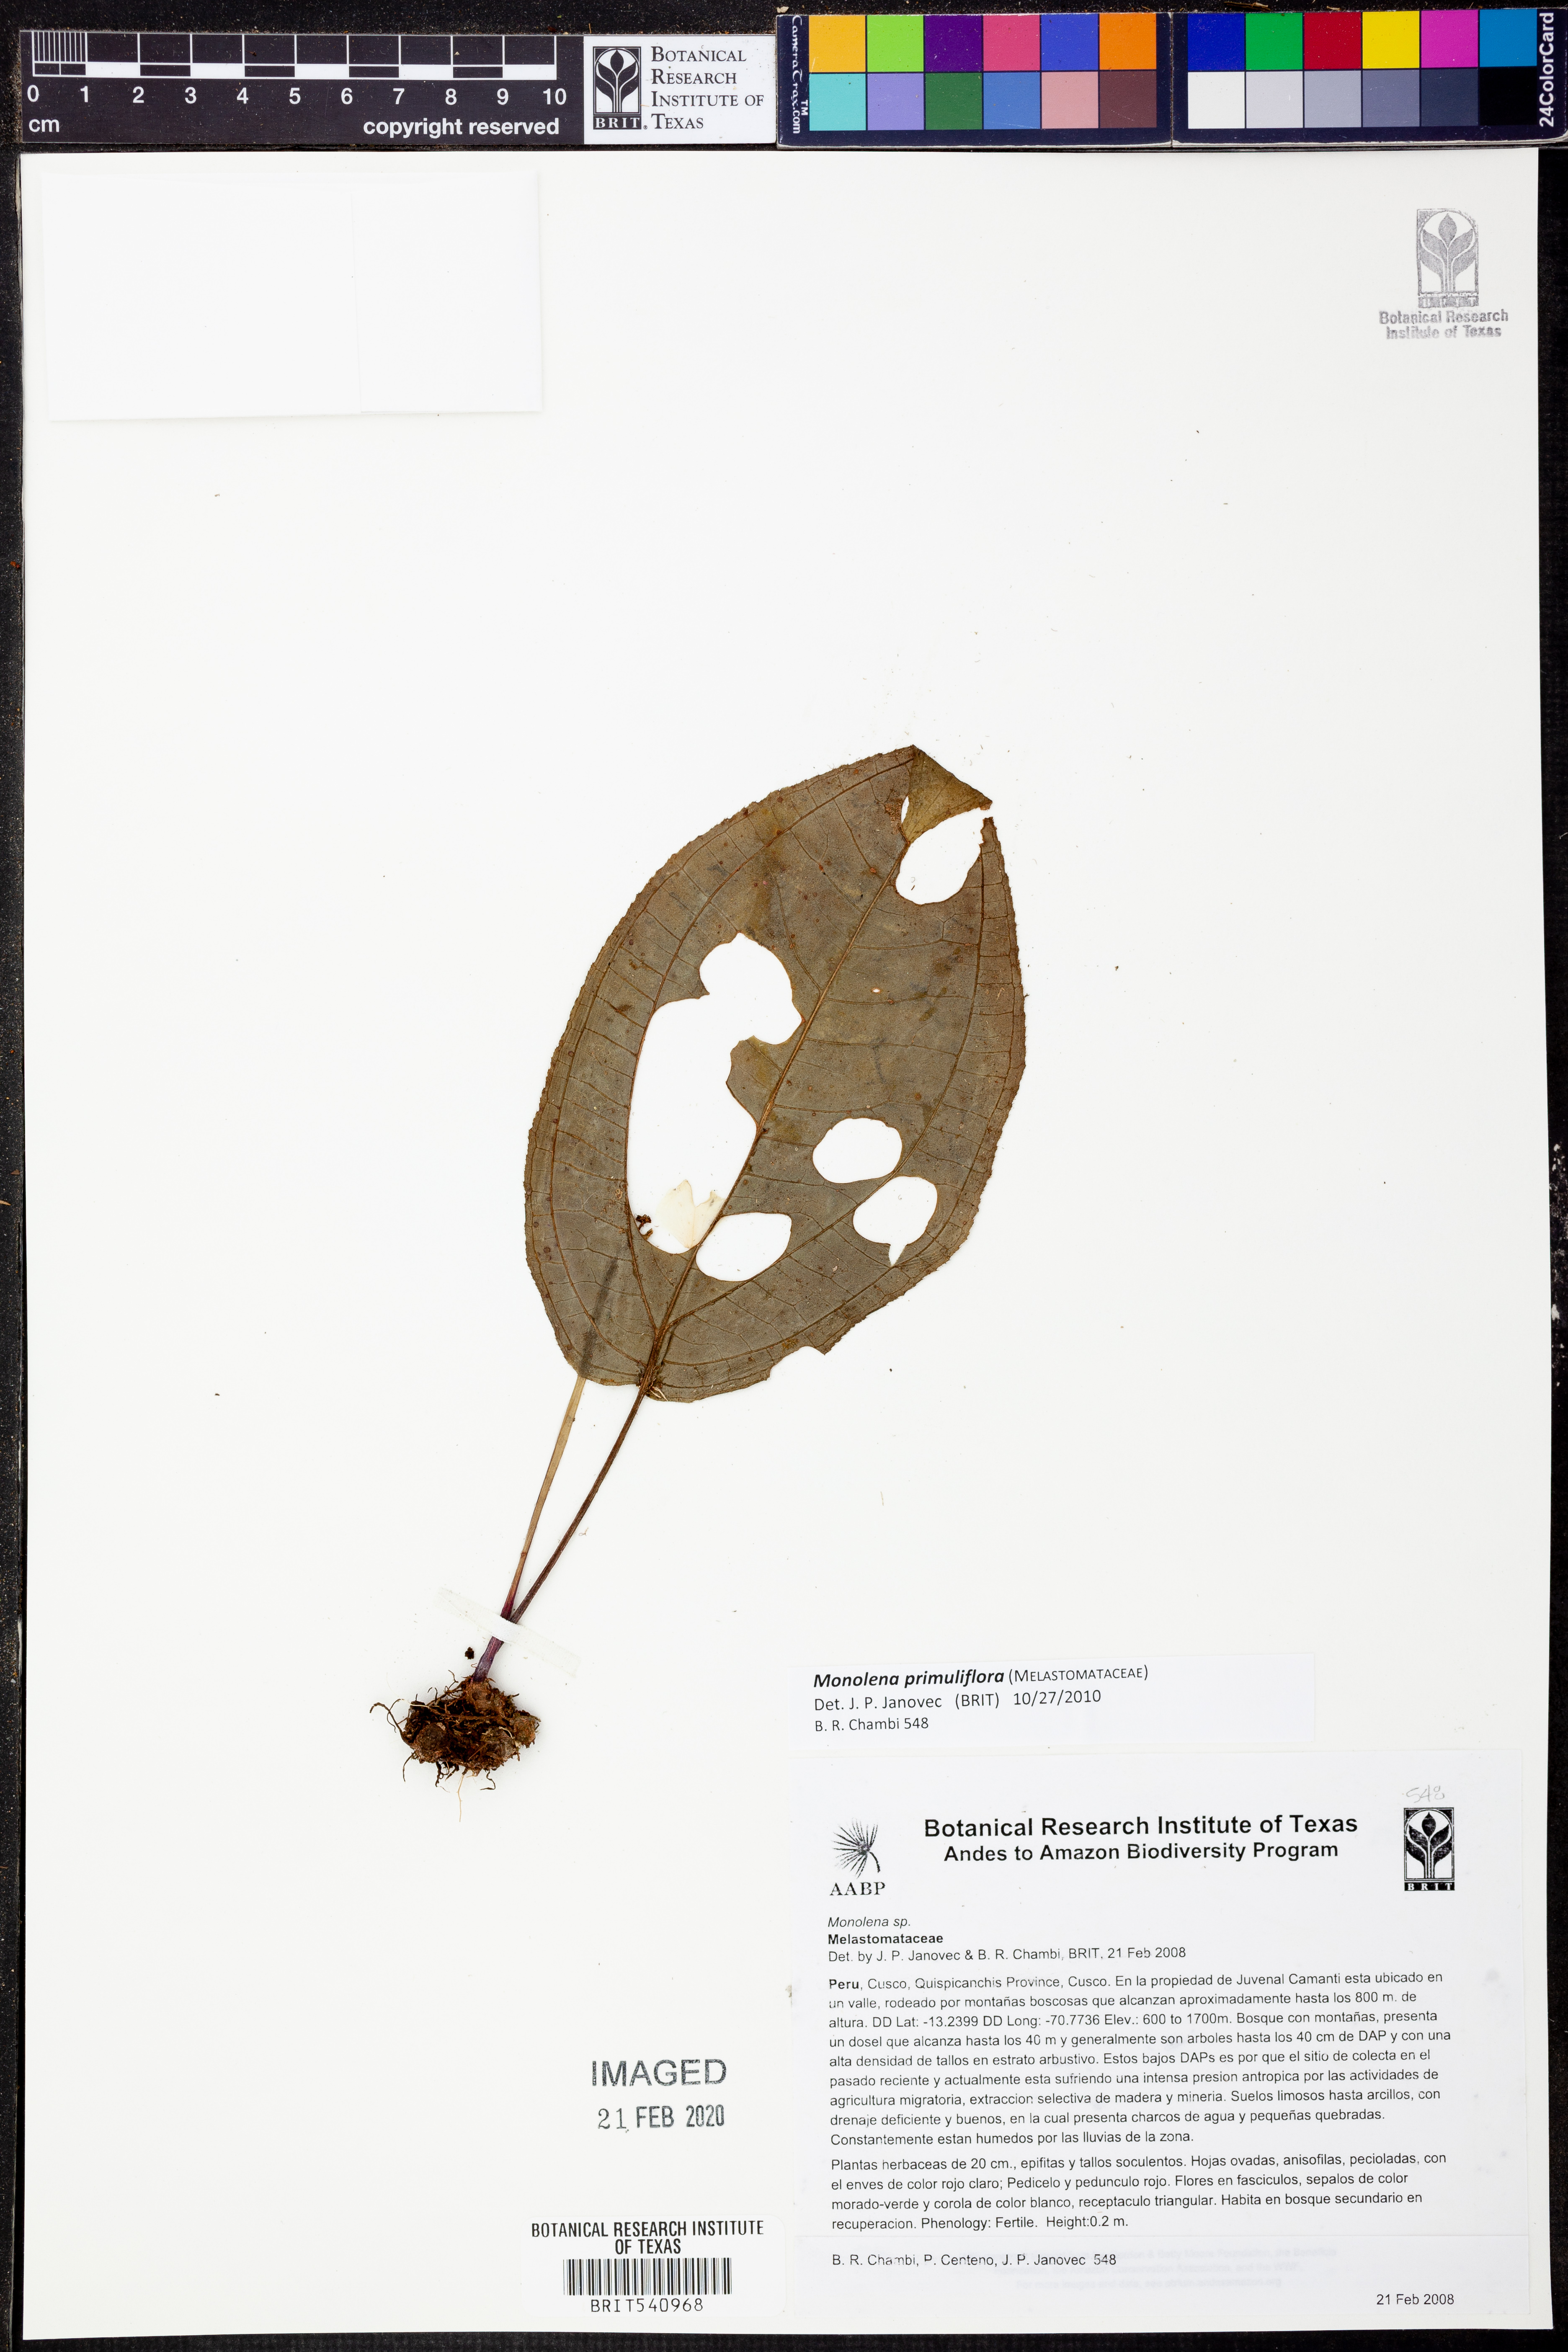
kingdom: Plantae
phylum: Tracheophyta
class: Magnoliopsida
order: Myrtales
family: Melastomataceae
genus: Monolena
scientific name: Monolena primuliflora
